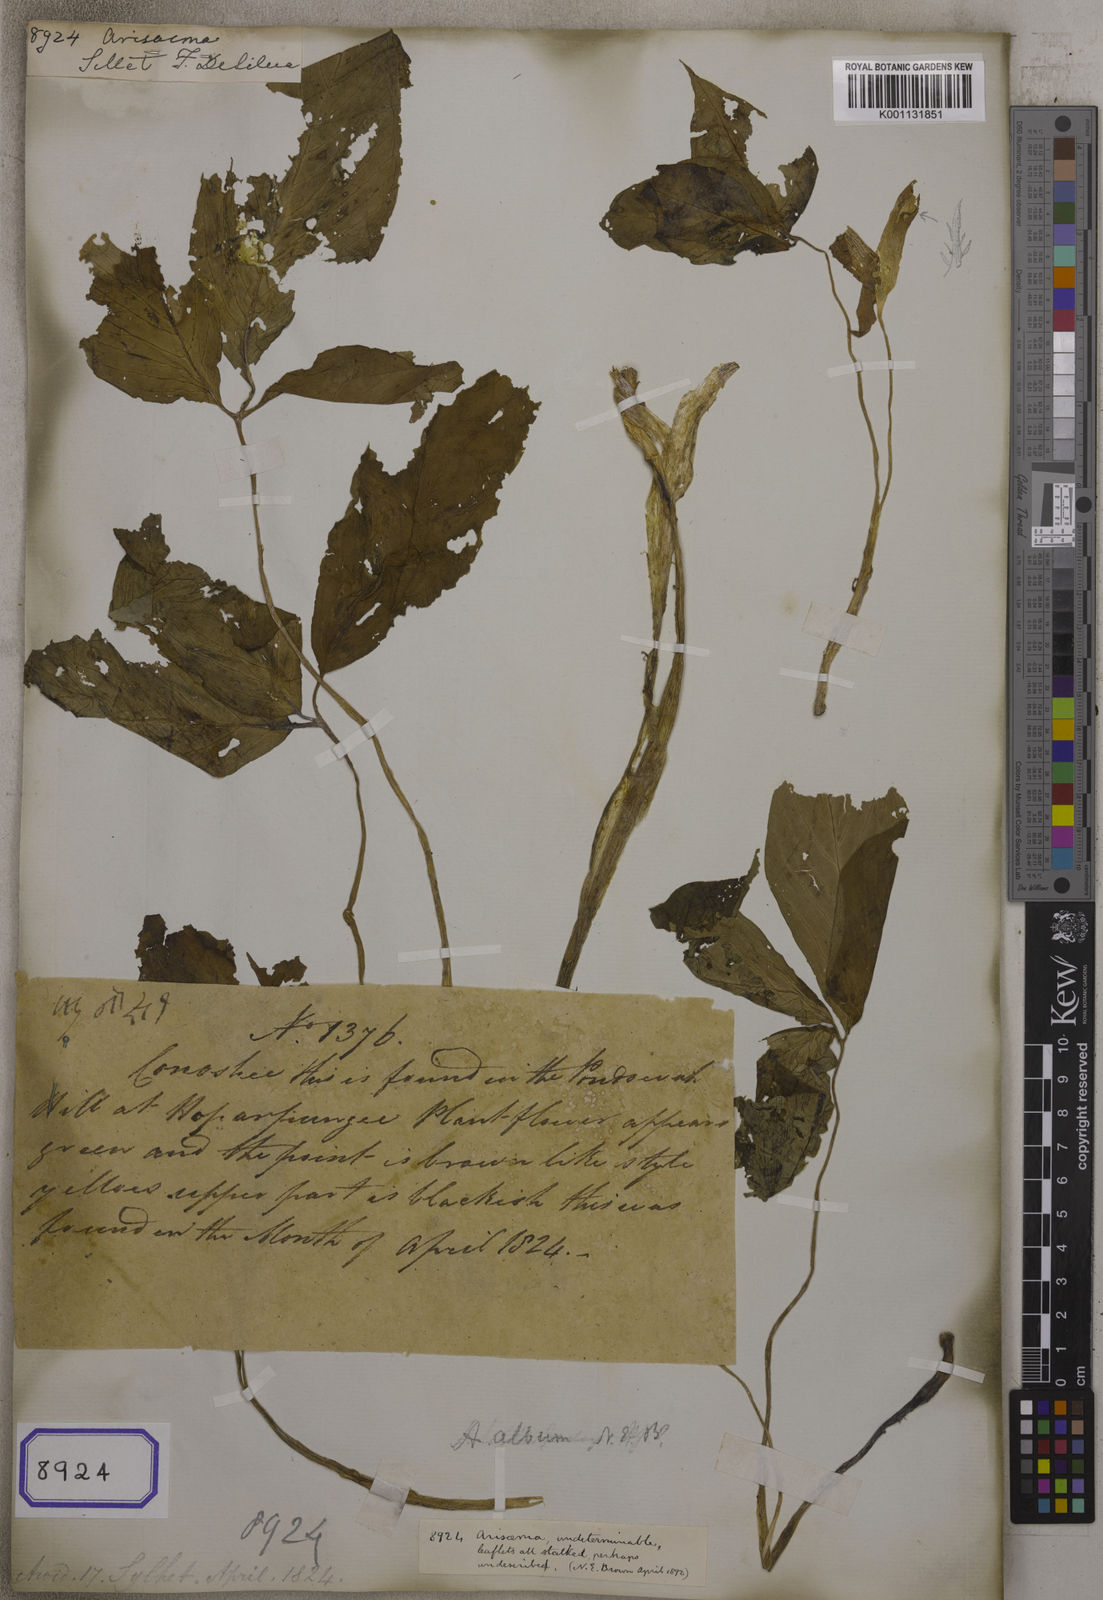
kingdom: Plantae
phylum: Tracheophyta
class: Liliopsida
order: Alismatales
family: Araceae
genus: Arisaema
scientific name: Arisaema
